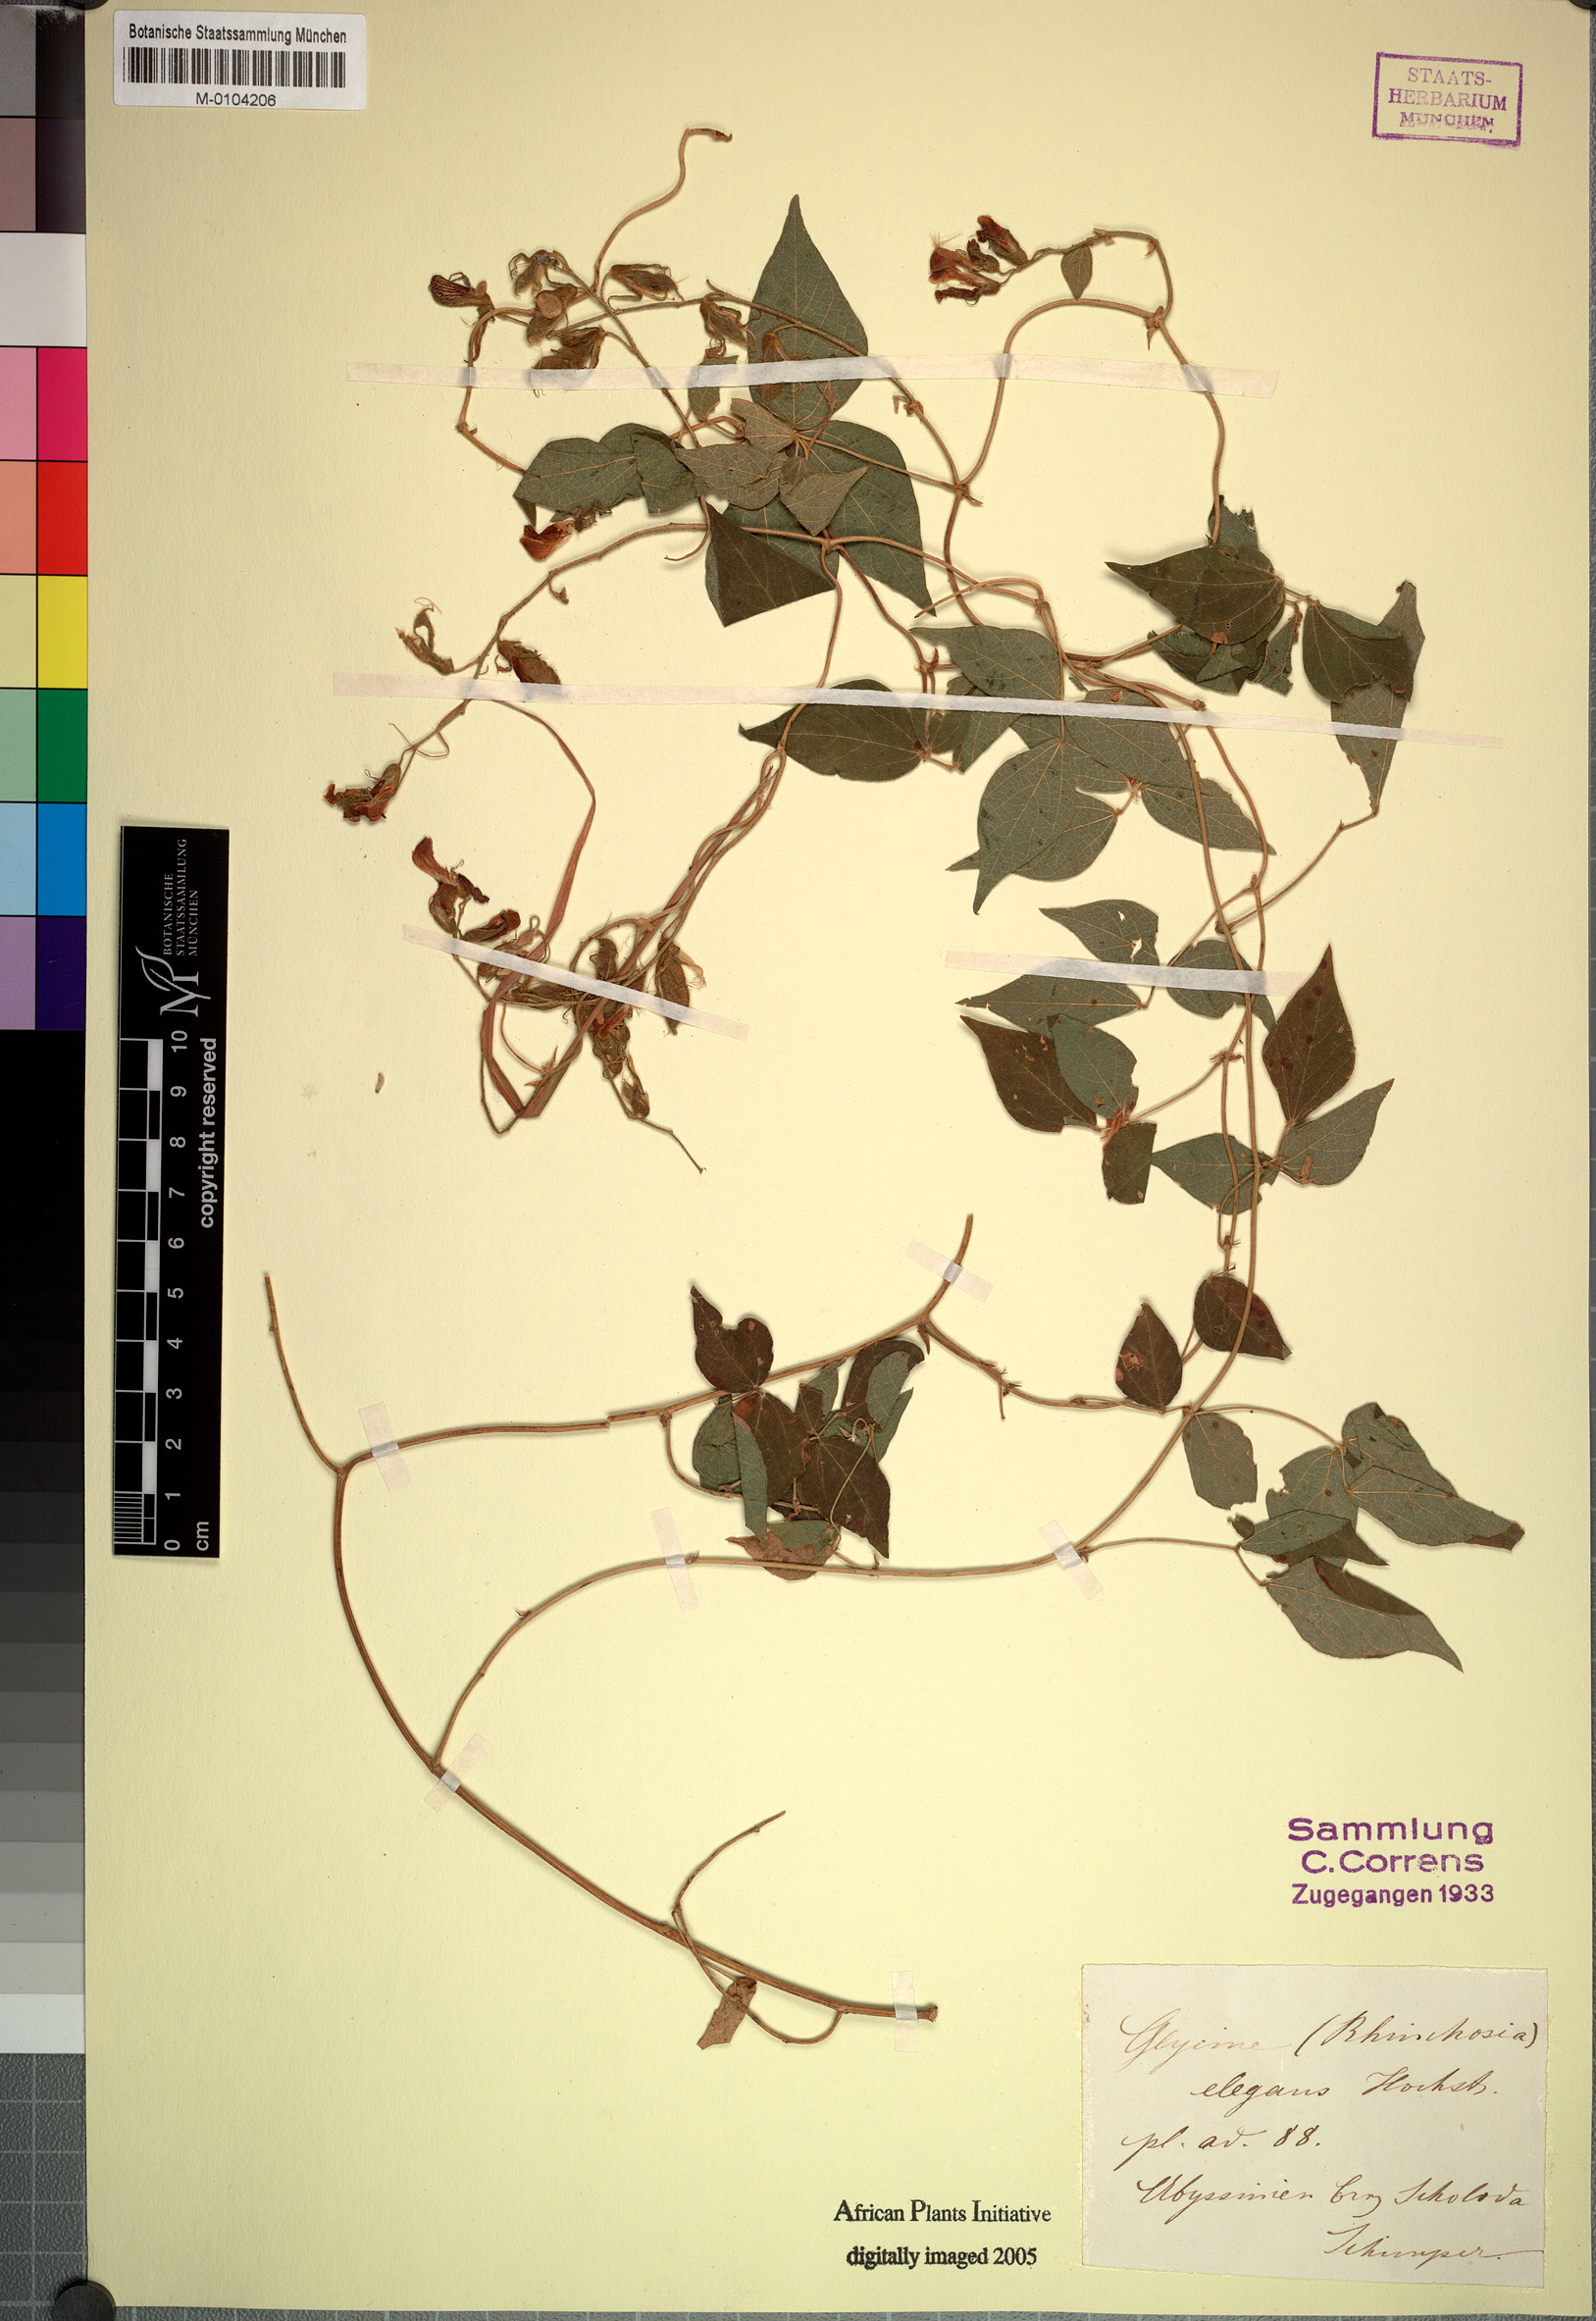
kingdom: Plantae
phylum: Tracheophyta
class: Magnoliopsida
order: Fabales
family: Fabaceae
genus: Rhynchosia
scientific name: Rhynchosia elegans
